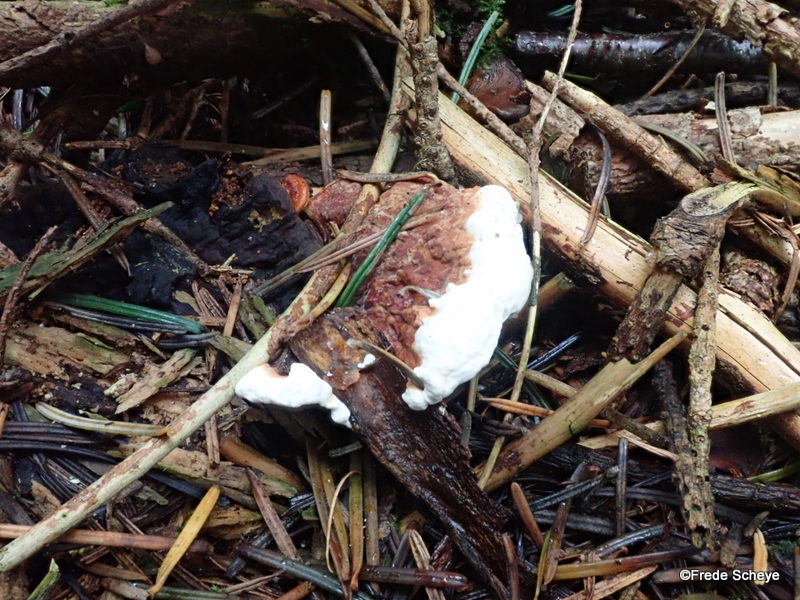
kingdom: Fungi
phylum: Basidiomycota
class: Agaricomycetes
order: Russulales
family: Bondarzewiaceae
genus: Heterobasidion
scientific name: Heterobasidion annosum
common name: almindelig rodfordærver
